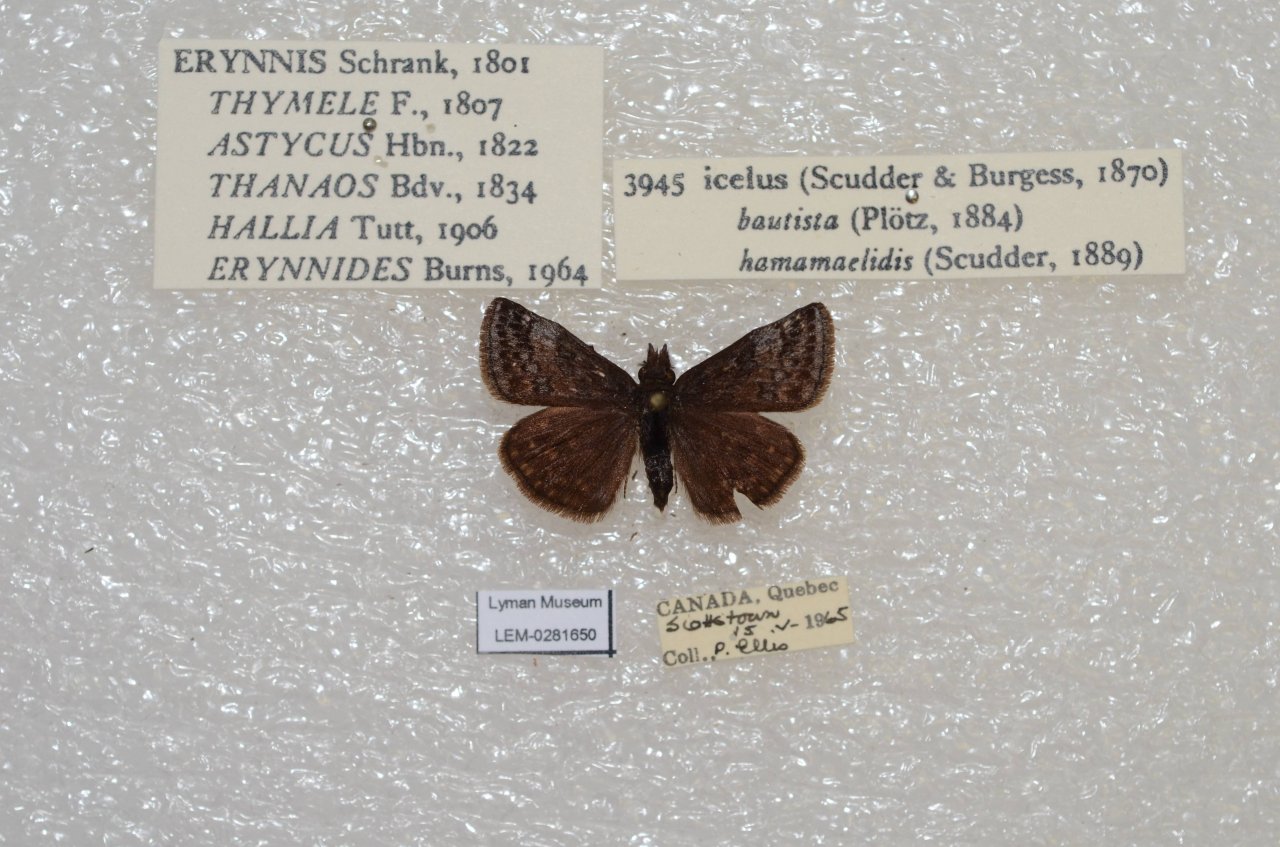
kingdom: Animalia
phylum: Arthropoda
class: Insecta
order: Lepidoptera
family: Hesperiidae
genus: Erynnis
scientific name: Erynnis icelus
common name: Dreamy Duskywing
